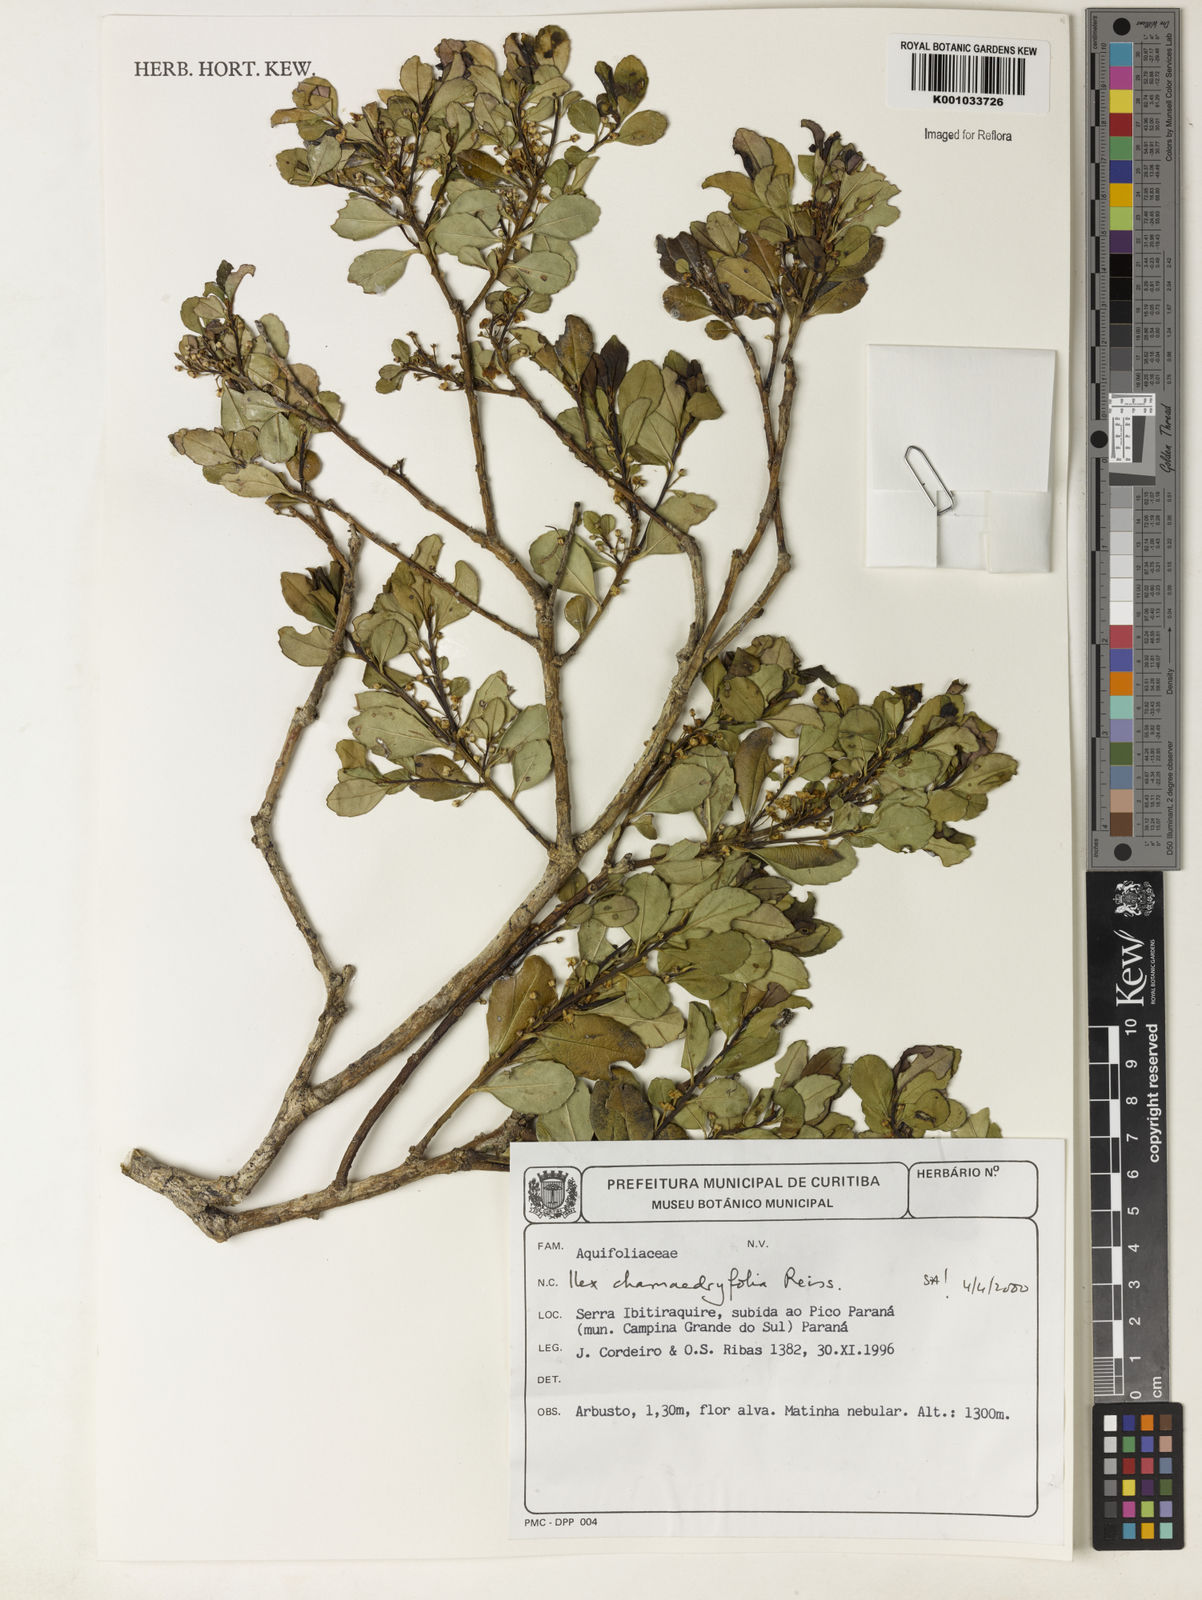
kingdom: Plantae
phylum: Tracheophyta
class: Magnoliopsida
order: Aquifoliales
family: Aquifoliaceae
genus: Ilex
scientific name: Ilex chamaedryfolia
